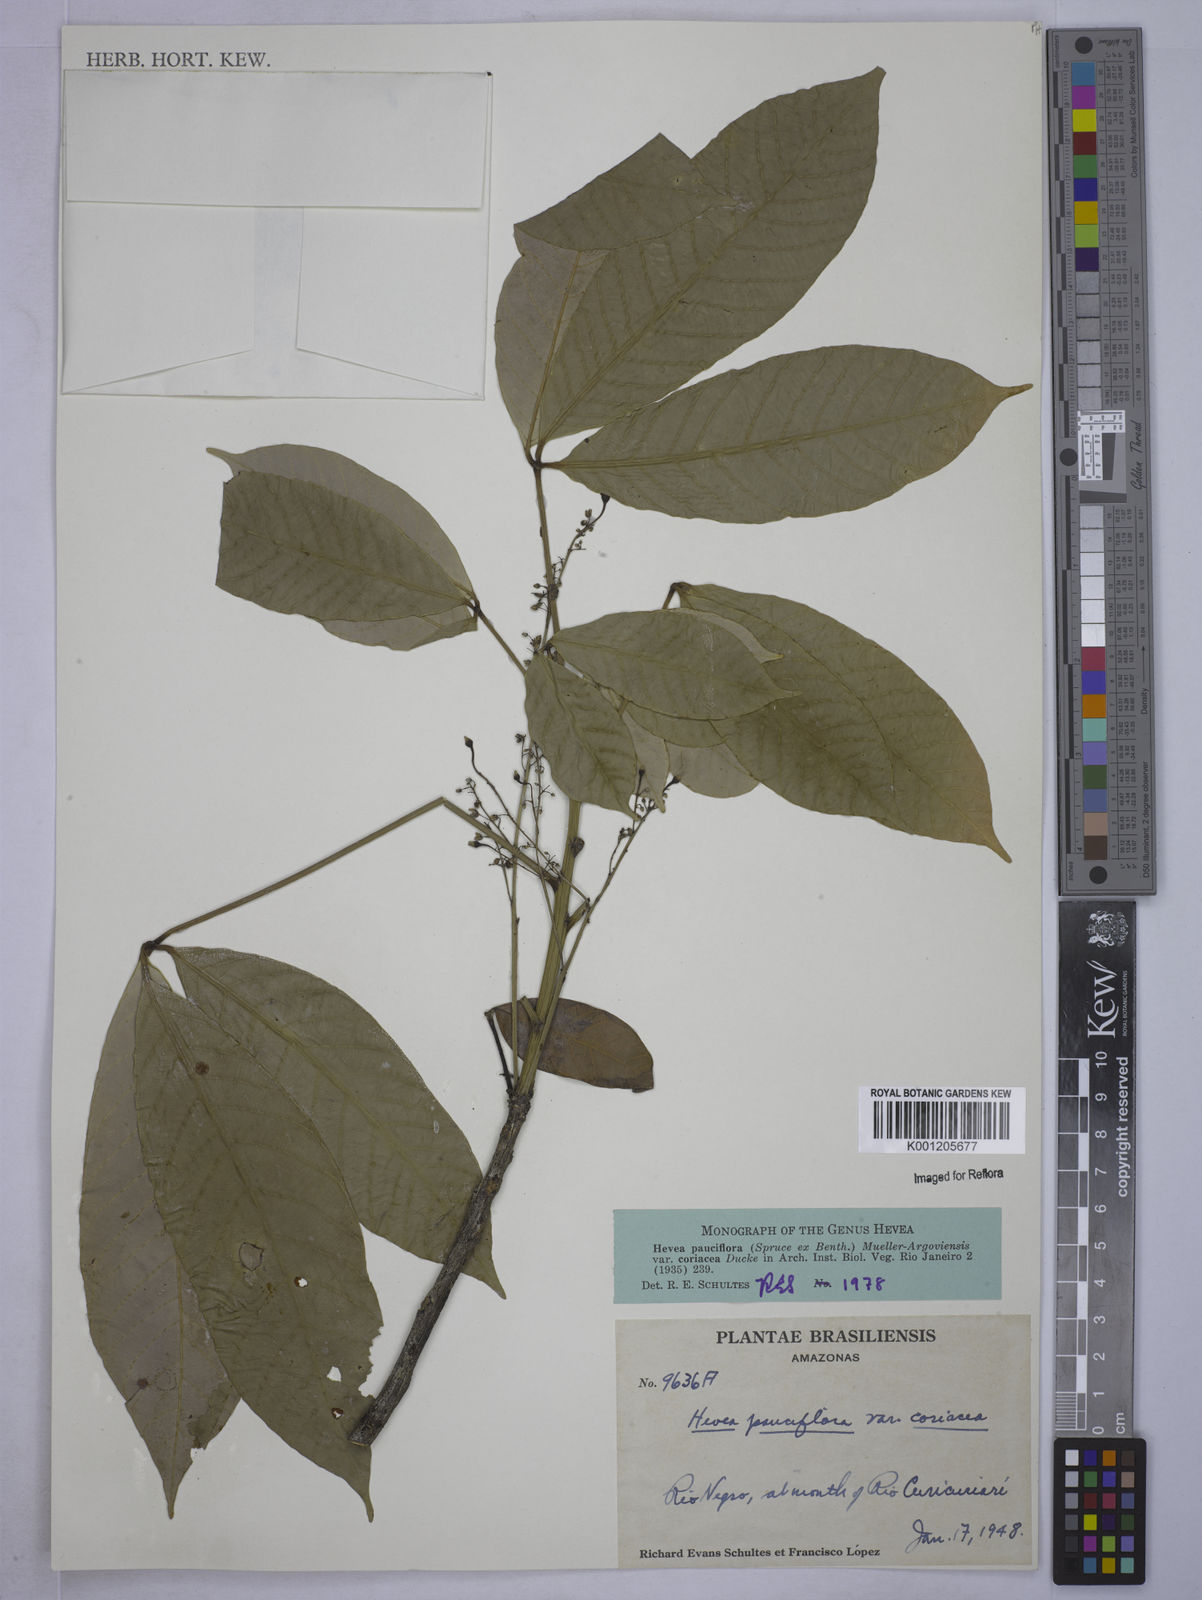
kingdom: Plantae
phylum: Tracheophyta
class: Magnoliopsida
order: Malpighiales
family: Euphorbiaceae
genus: Hevea
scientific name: Hevea pauciflora
